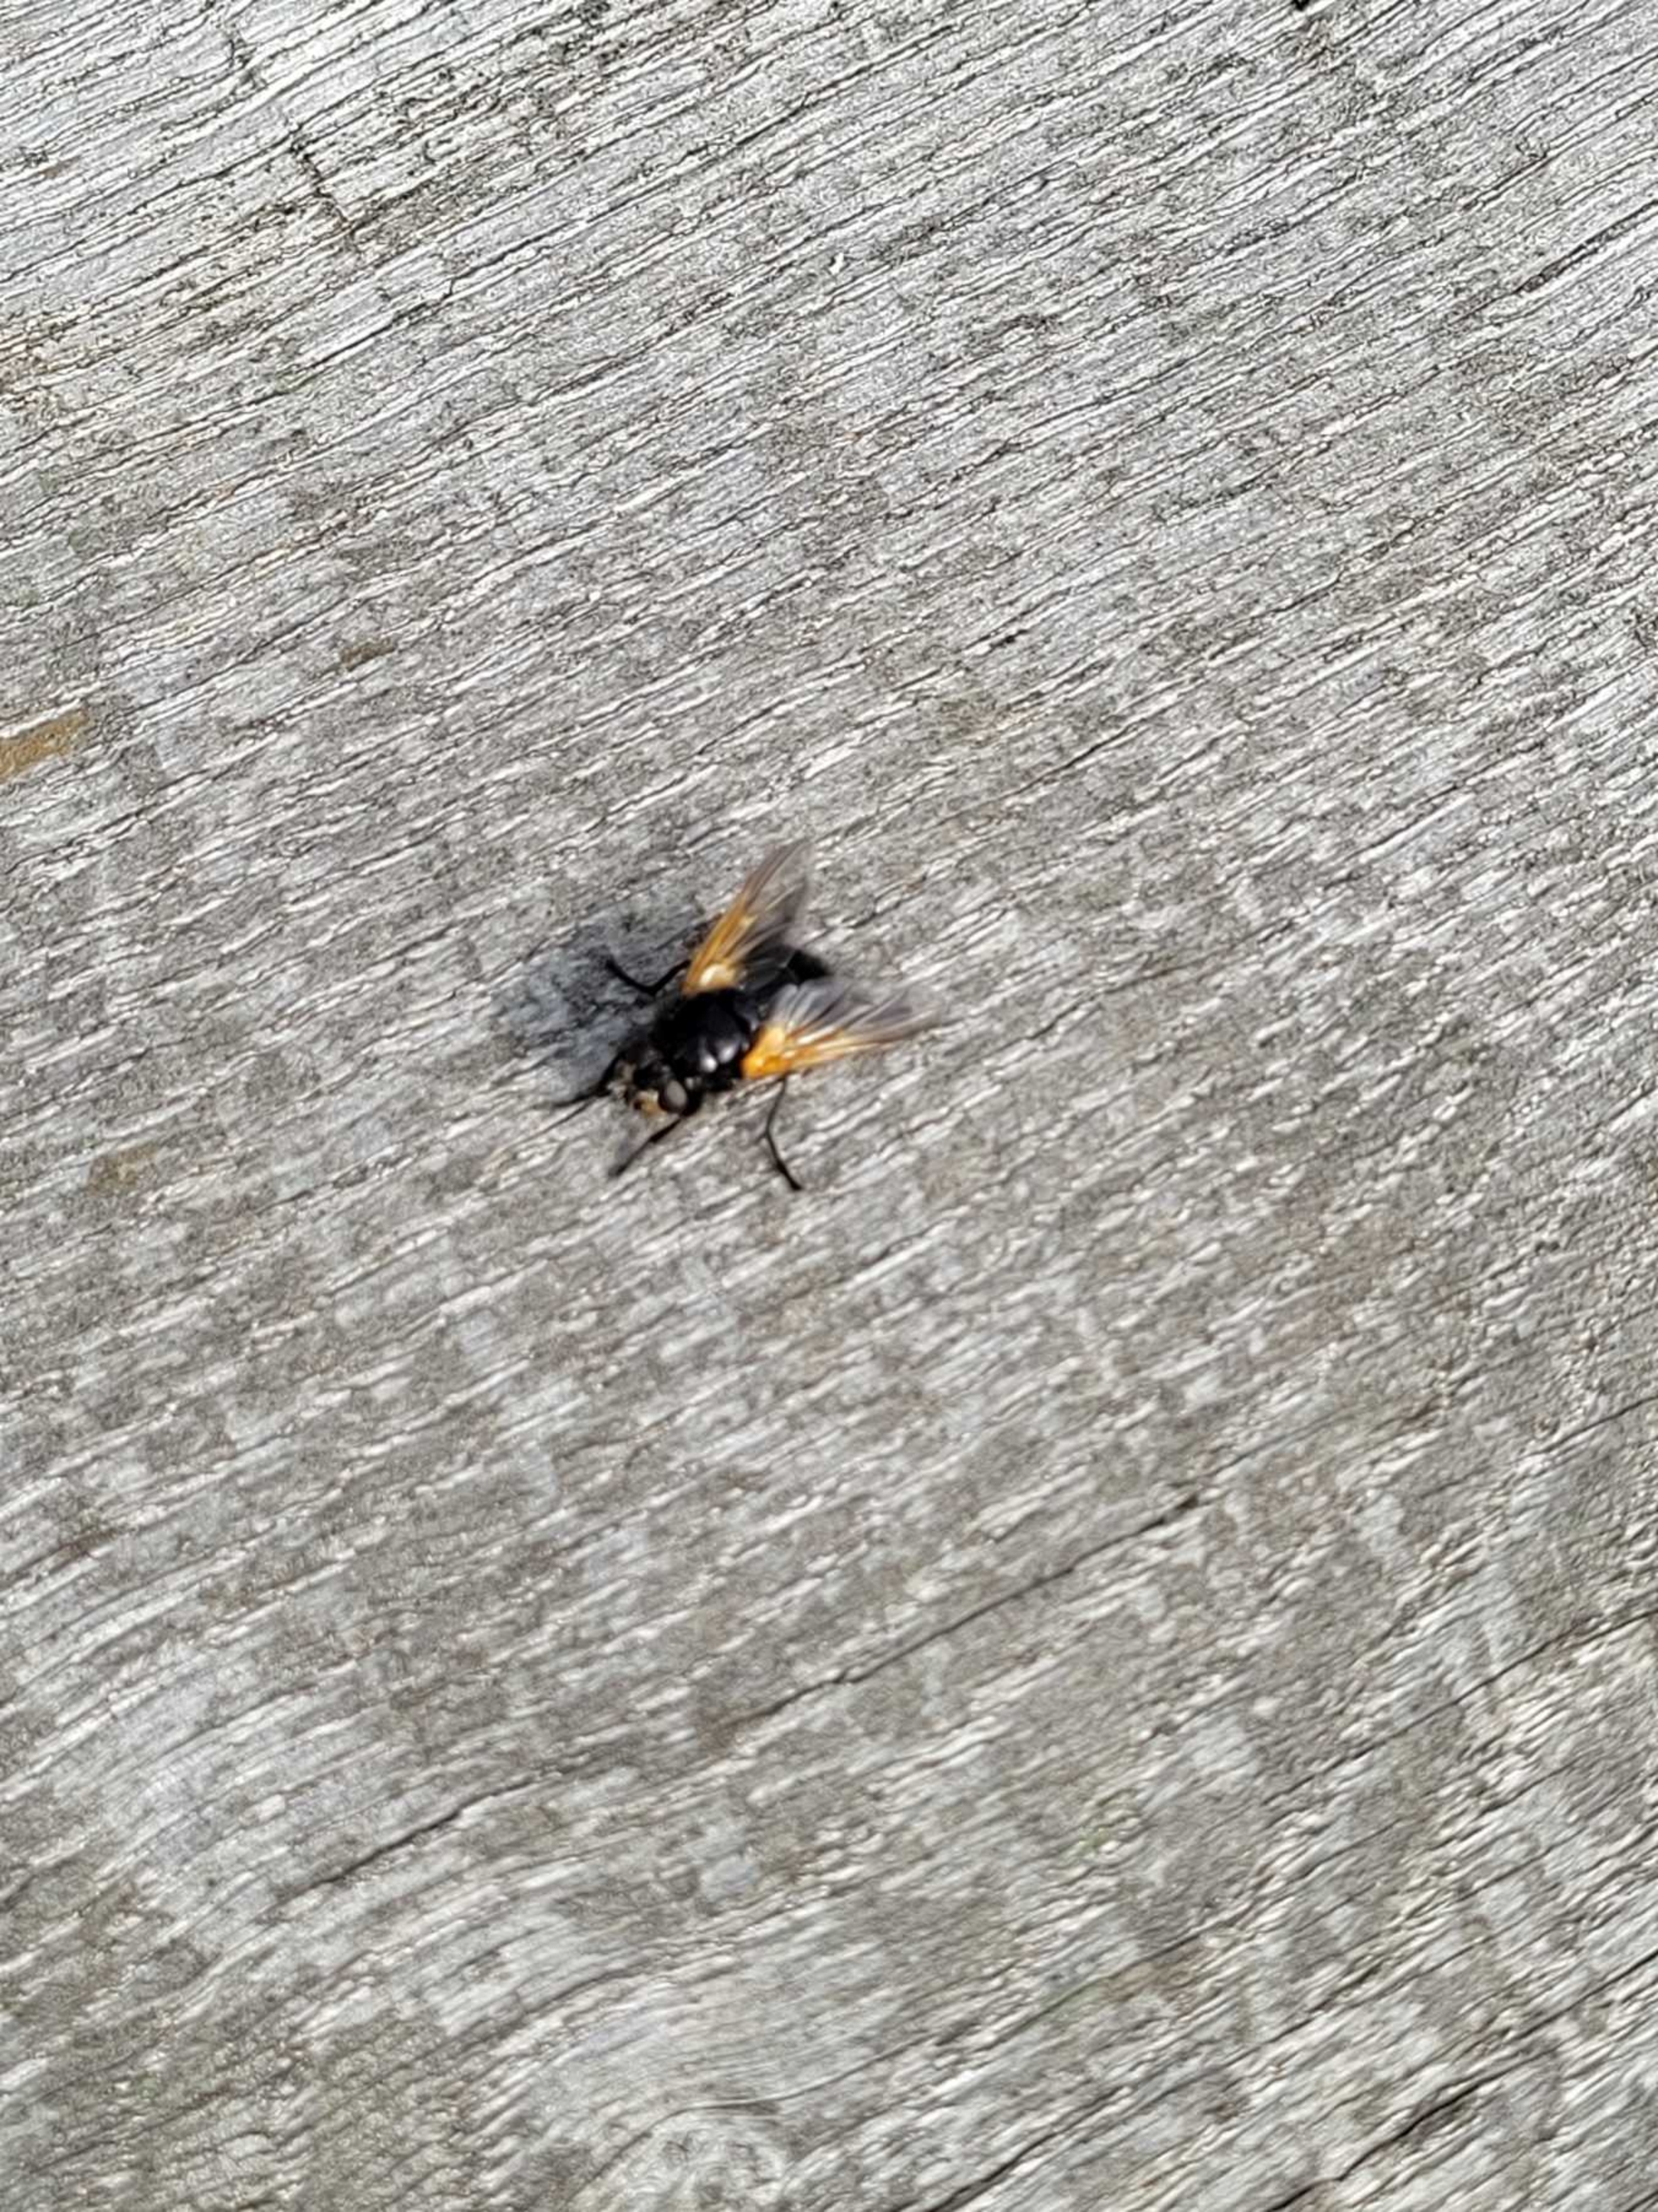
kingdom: Animalia
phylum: Arthropoda
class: Insecta
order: Diptera
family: Muscidae
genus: Mesembrina
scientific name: Mesembrina meridiana
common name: Gulvinget flue
